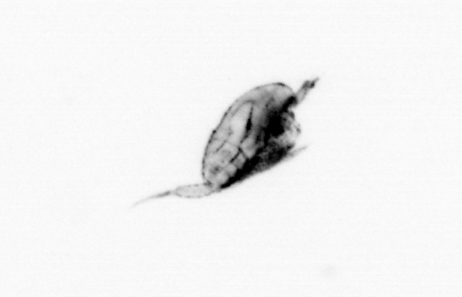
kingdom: Animalia
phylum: Arthropoda
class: Copepoda
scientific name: Copepoda
